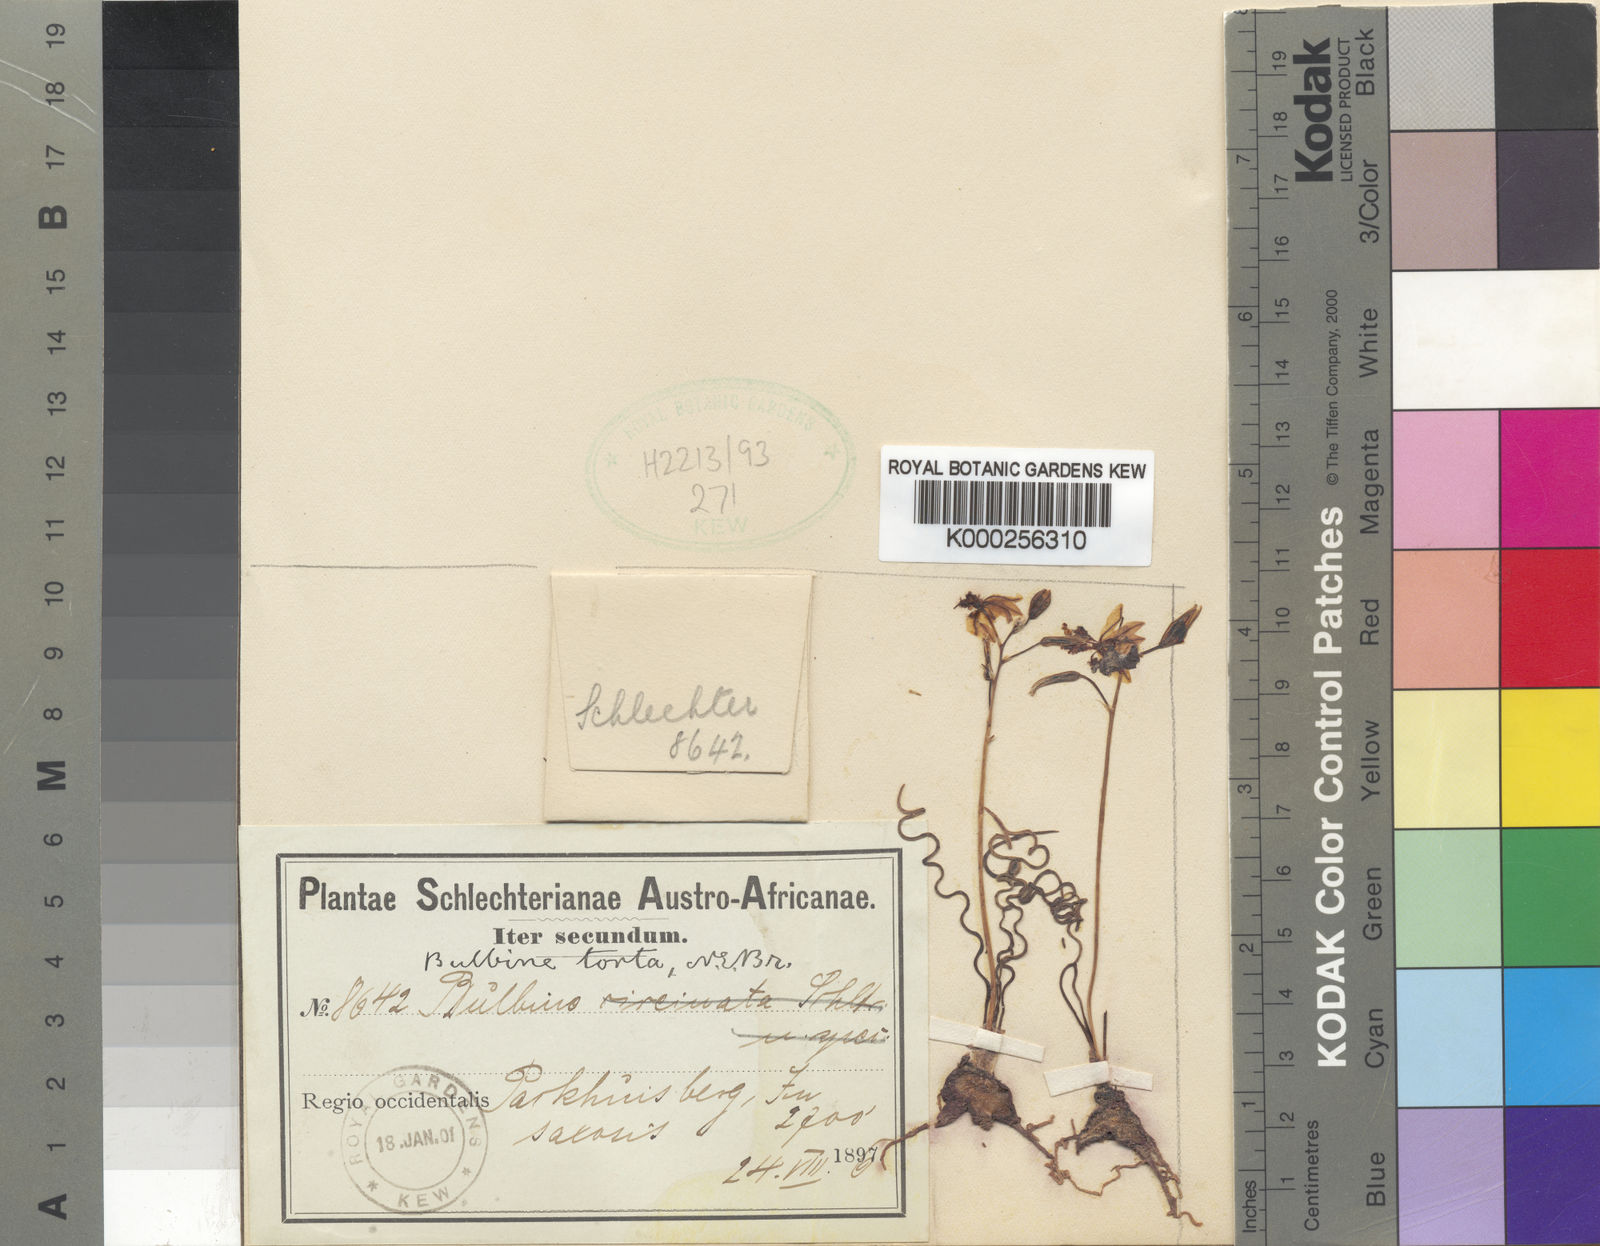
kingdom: Plantae
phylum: Tracheophyta
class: Liliopsida
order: Asparagales
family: Asphodelaceae
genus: Bulbine
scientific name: Bulbine torta
